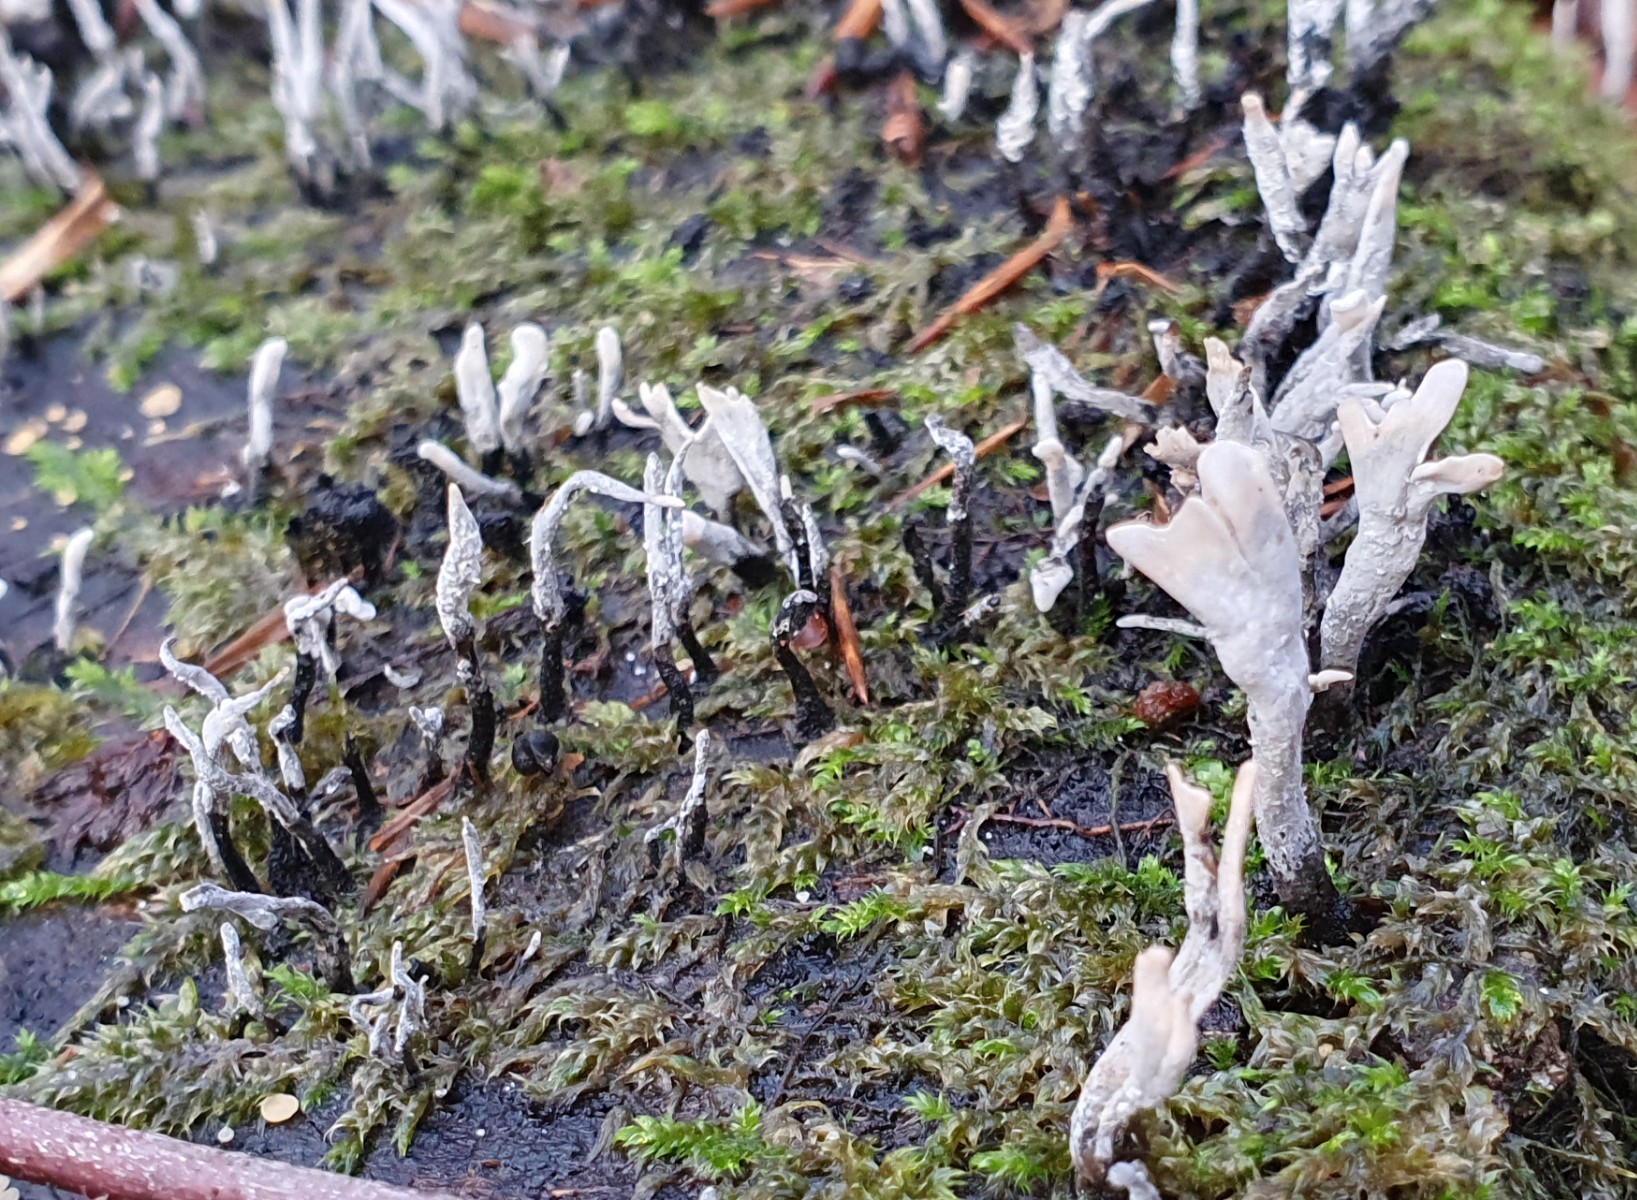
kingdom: Fungi
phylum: Ascomycota
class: Sordariomycetes
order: Xylariales
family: Xylariaceae
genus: Xylaria
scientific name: Xylaria hypoxylon
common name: grenet stødsvamp
